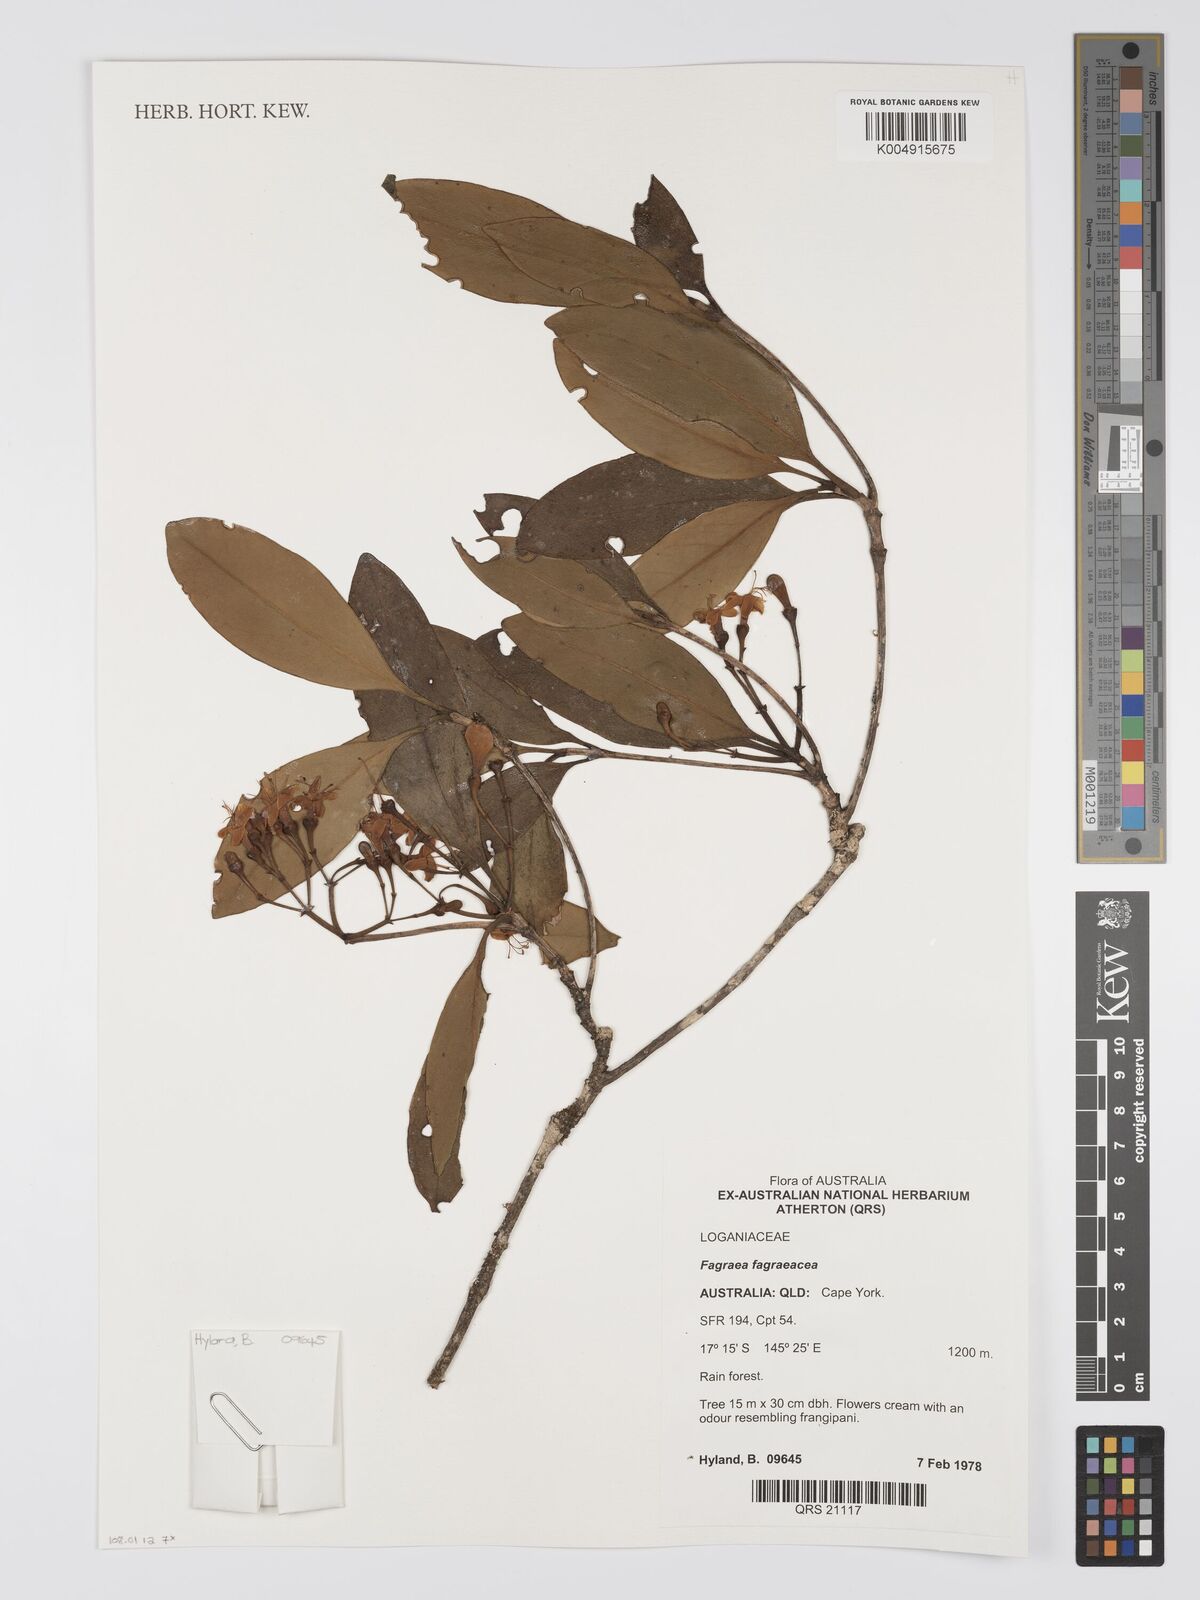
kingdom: Plantae
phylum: Tracheophyta
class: Magnoliopsida
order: Gentianales
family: Gentianaceae
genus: Fagraea
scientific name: Fagraea gracilipes
